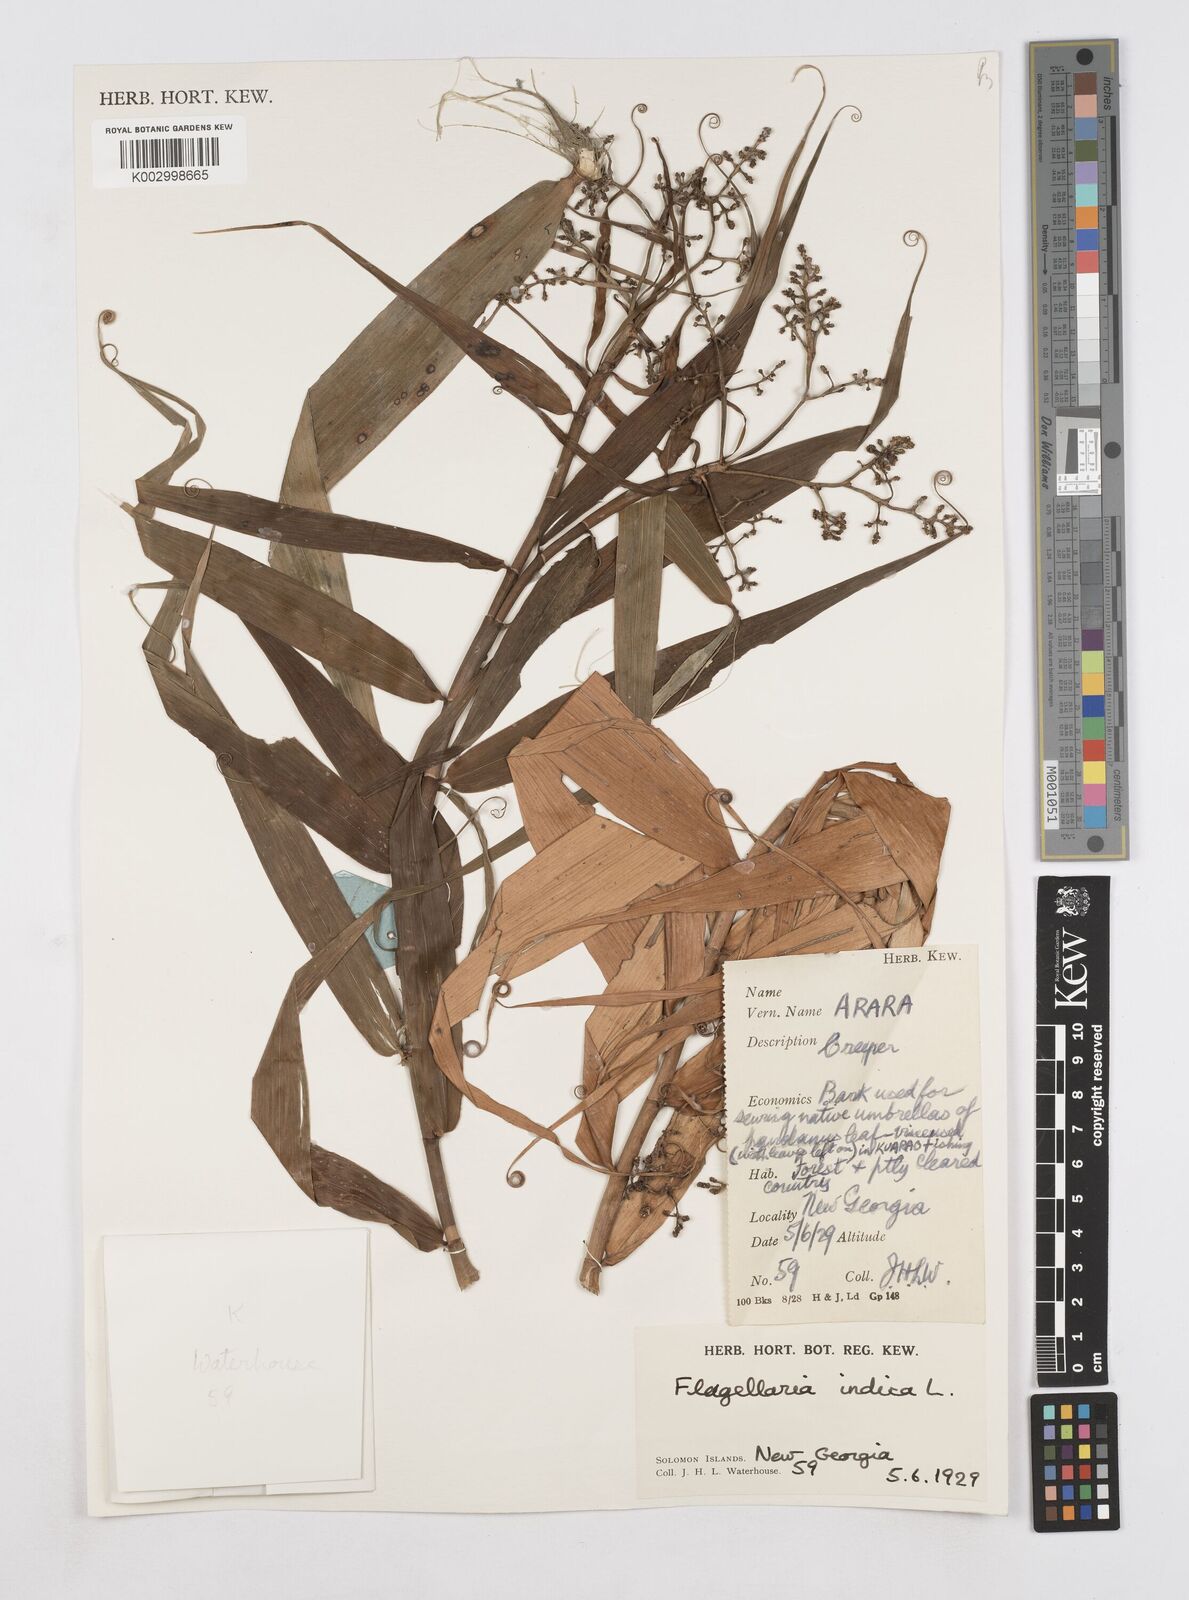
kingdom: Plantae
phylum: Tracheophyta
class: Liliopsida
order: Poales
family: Flagellariaceae
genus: Flagellaria
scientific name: Flagellaria indica
